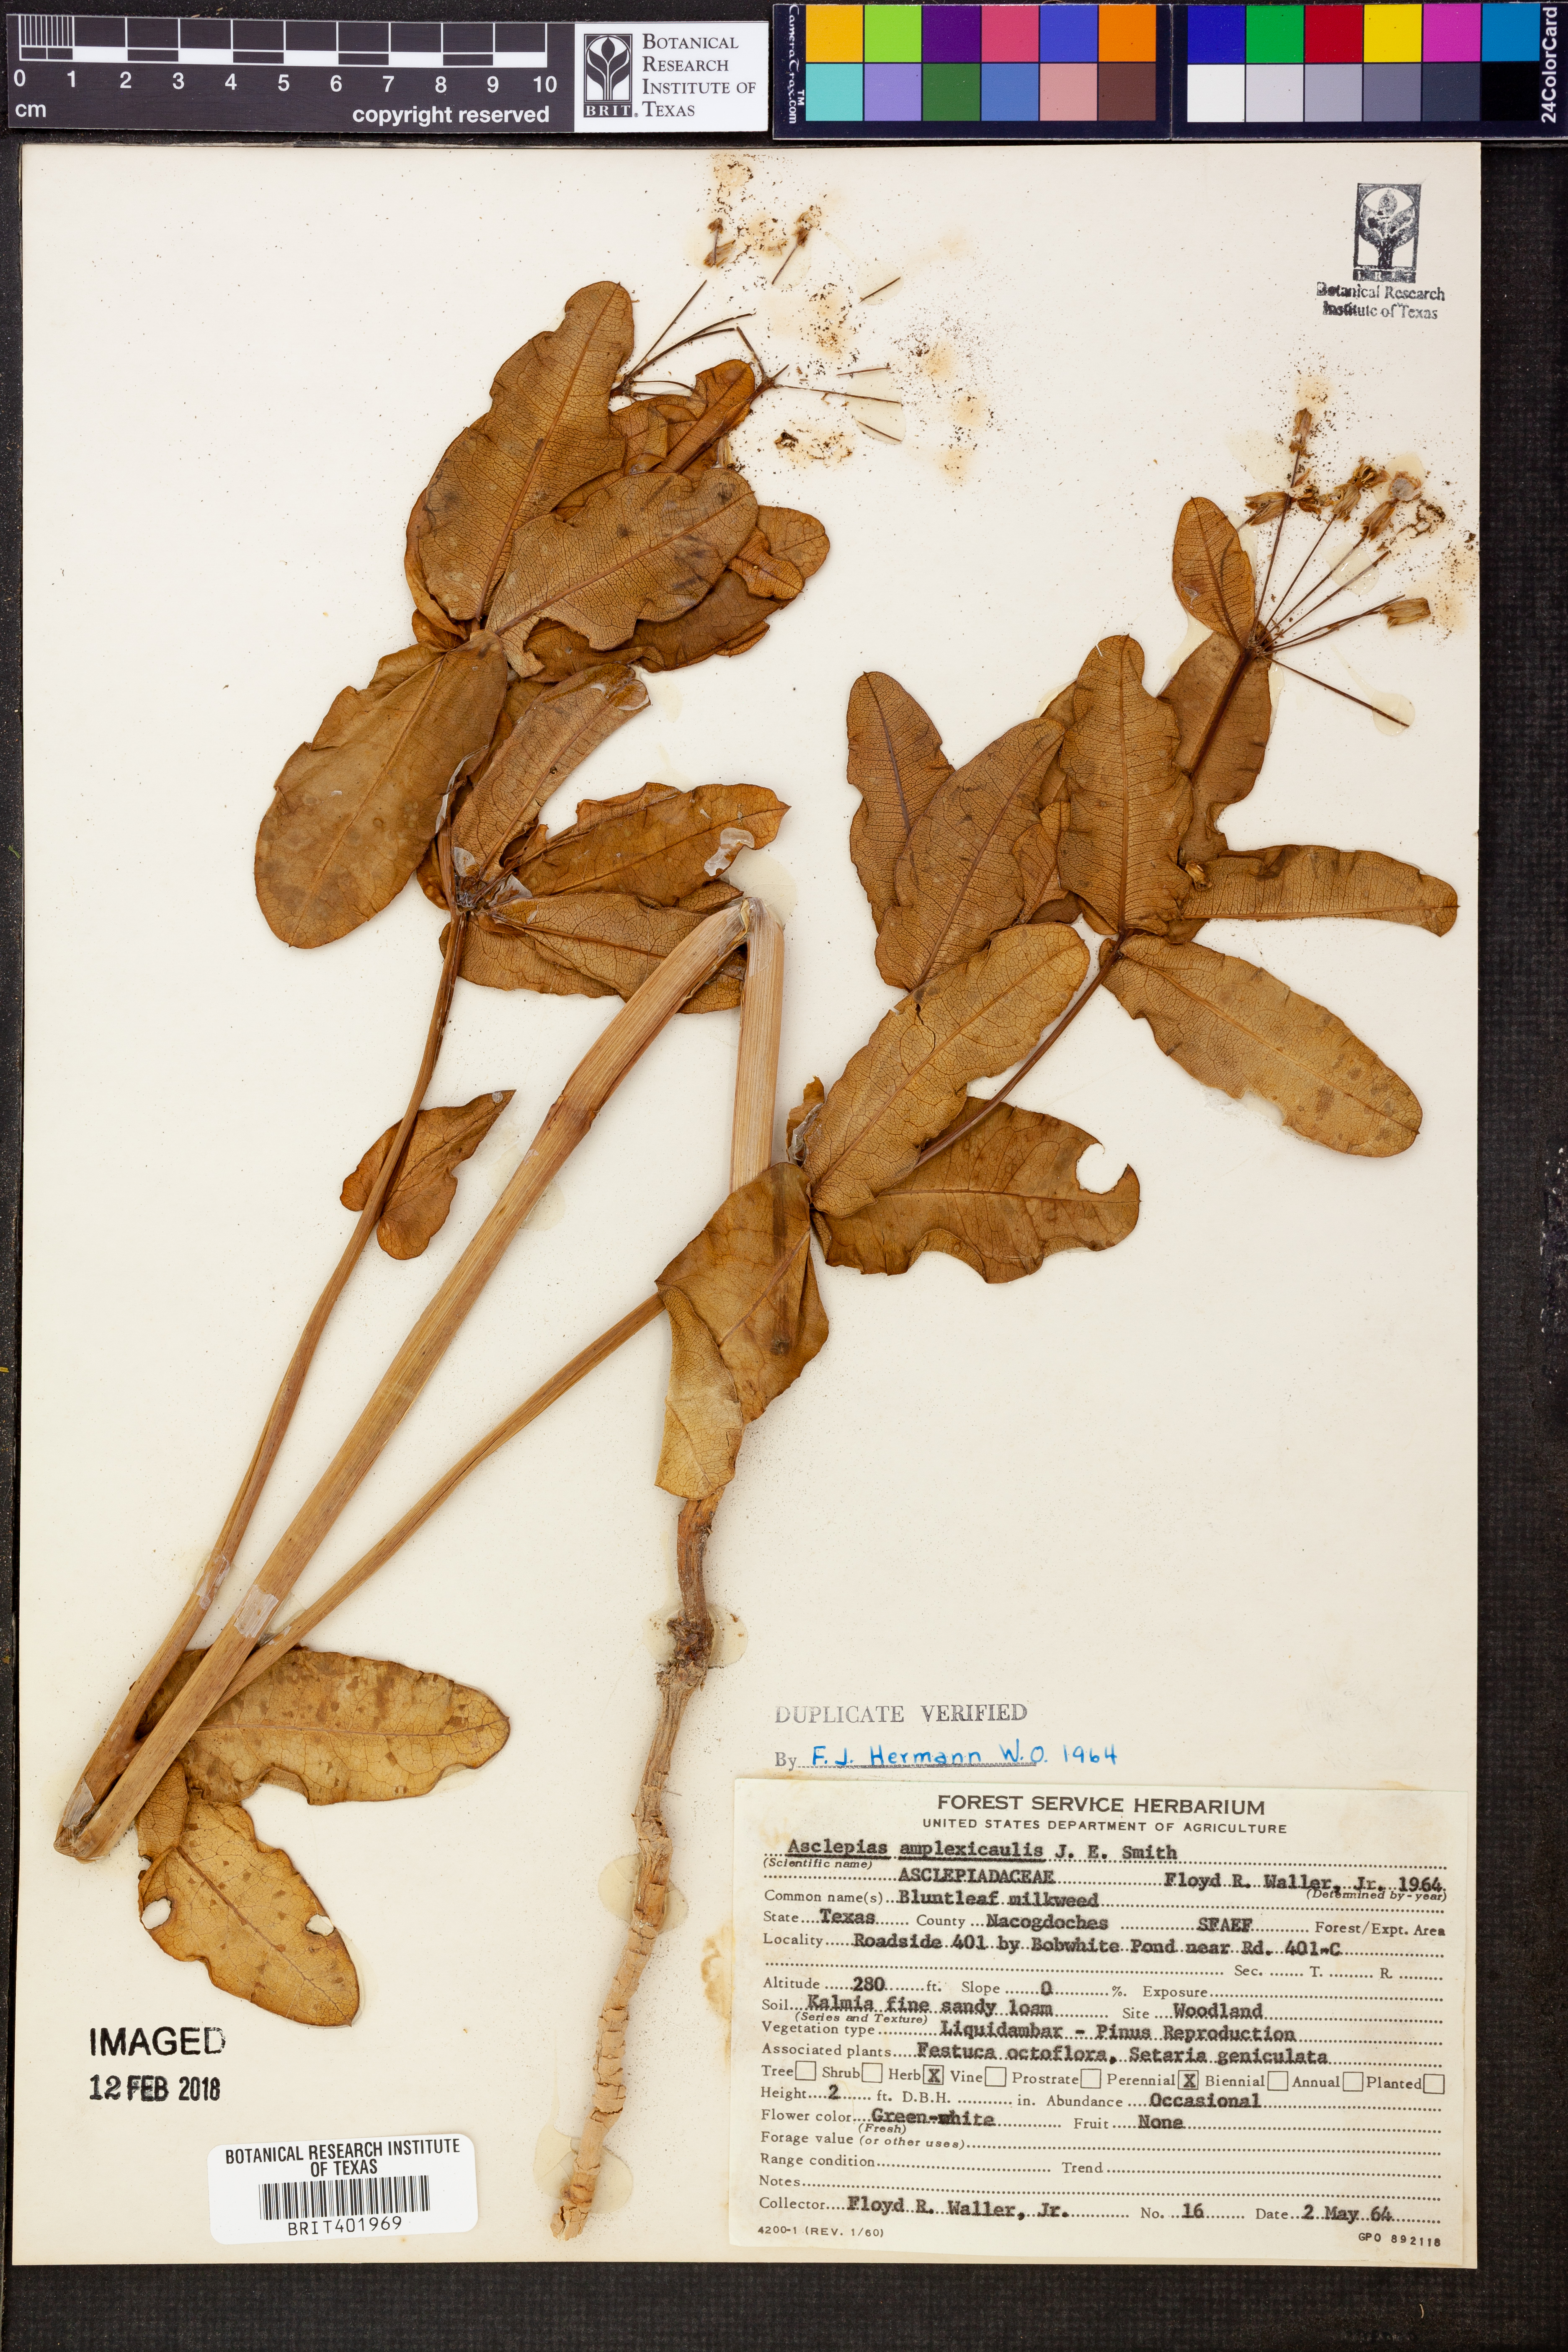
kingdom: Plantae
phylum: Tracheophyta
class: Magnoliopsida
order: Gentianales
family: Apocynaceae
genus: Asclepias
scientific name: Asclepias amplexicaulis
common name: Blunt-leaf milkweed
